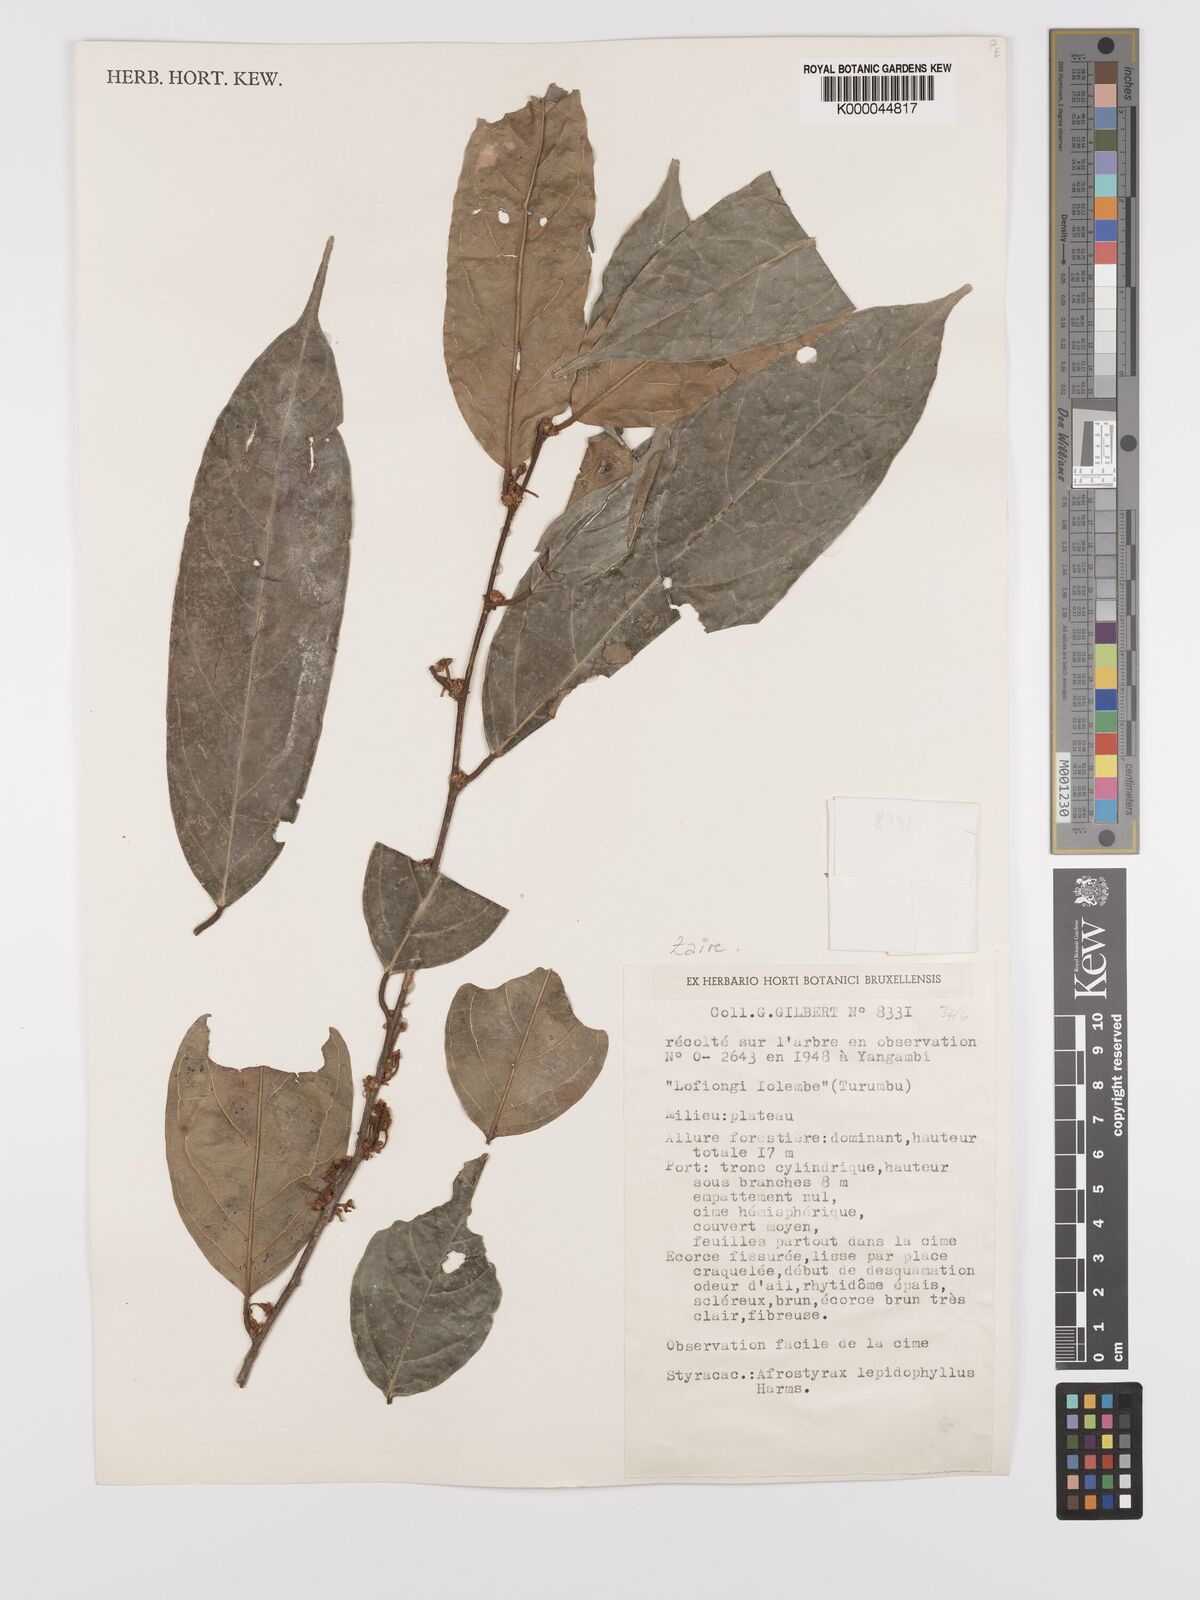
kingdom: Plantae
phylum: Tracheophyta
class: Magnoliopsida
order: Oxalidales
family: Huaceae
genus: Afrostyrax
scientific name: Afrostyrax lepidophyllus
